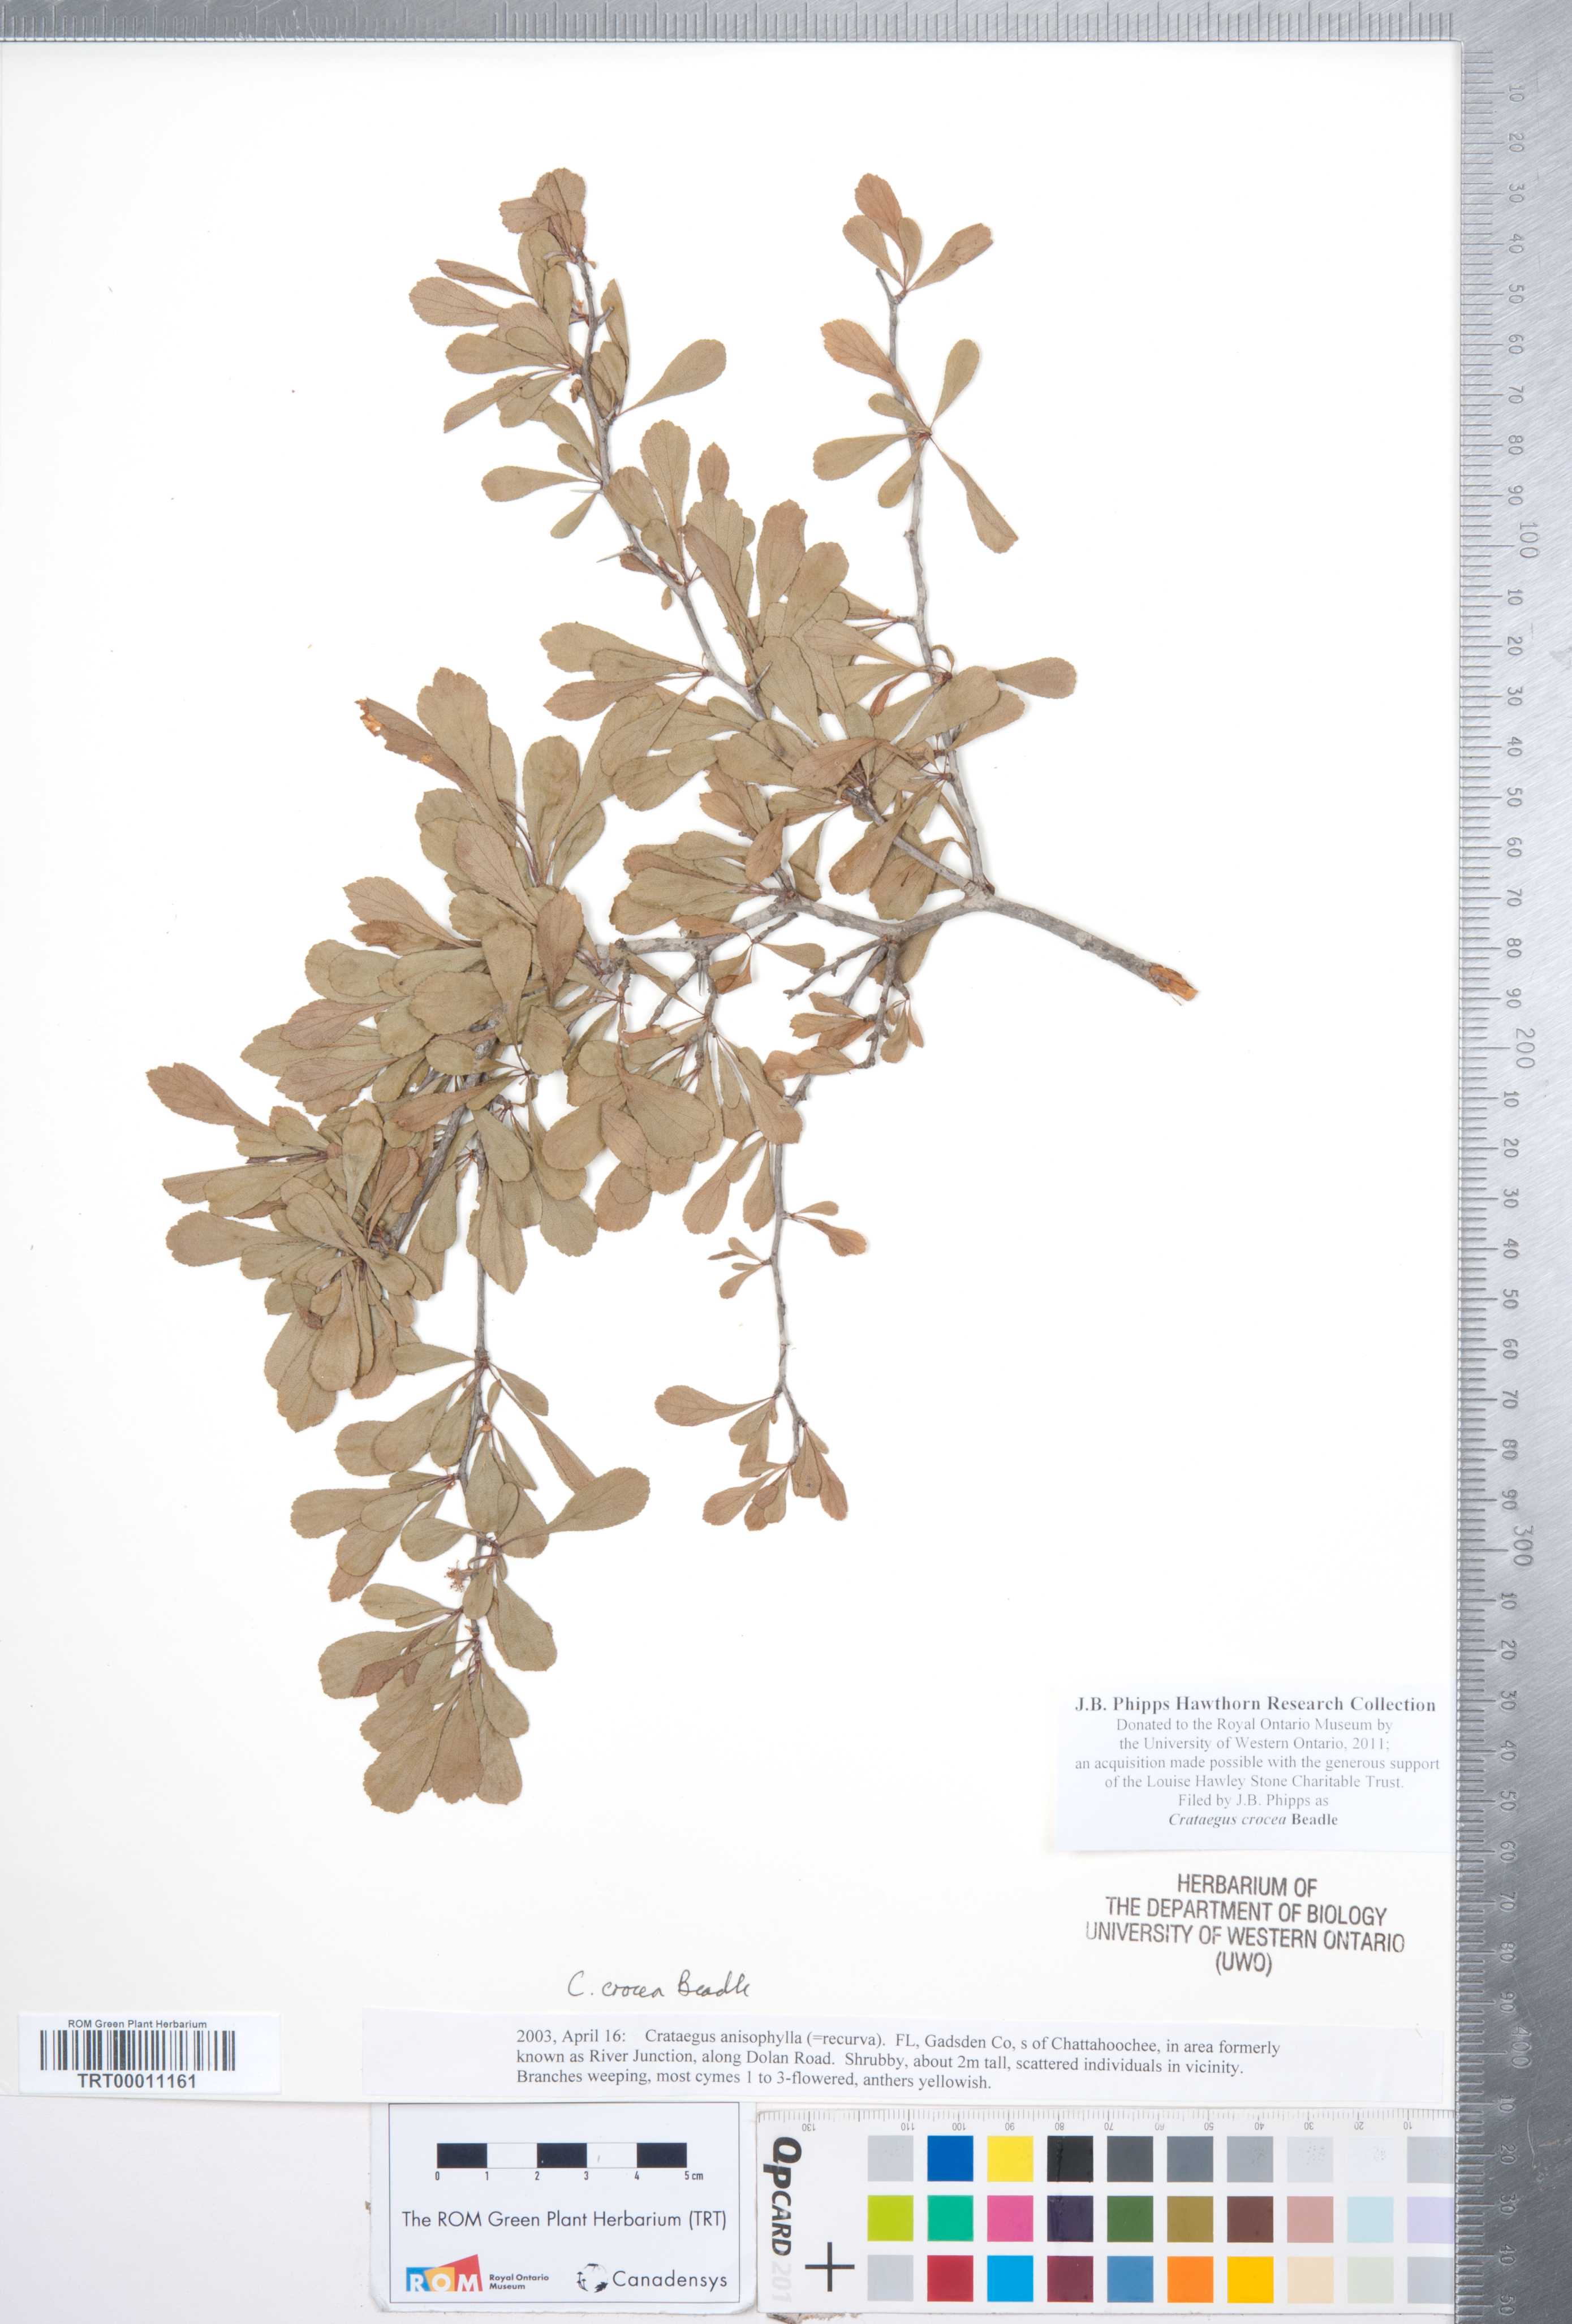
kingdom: Plantae
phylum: Tracheophyta
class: Magnoliopsida
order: Rosales
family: Rosaceae
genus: Crataegus
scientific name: Crataegus lassa
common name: Florida hawthorn
